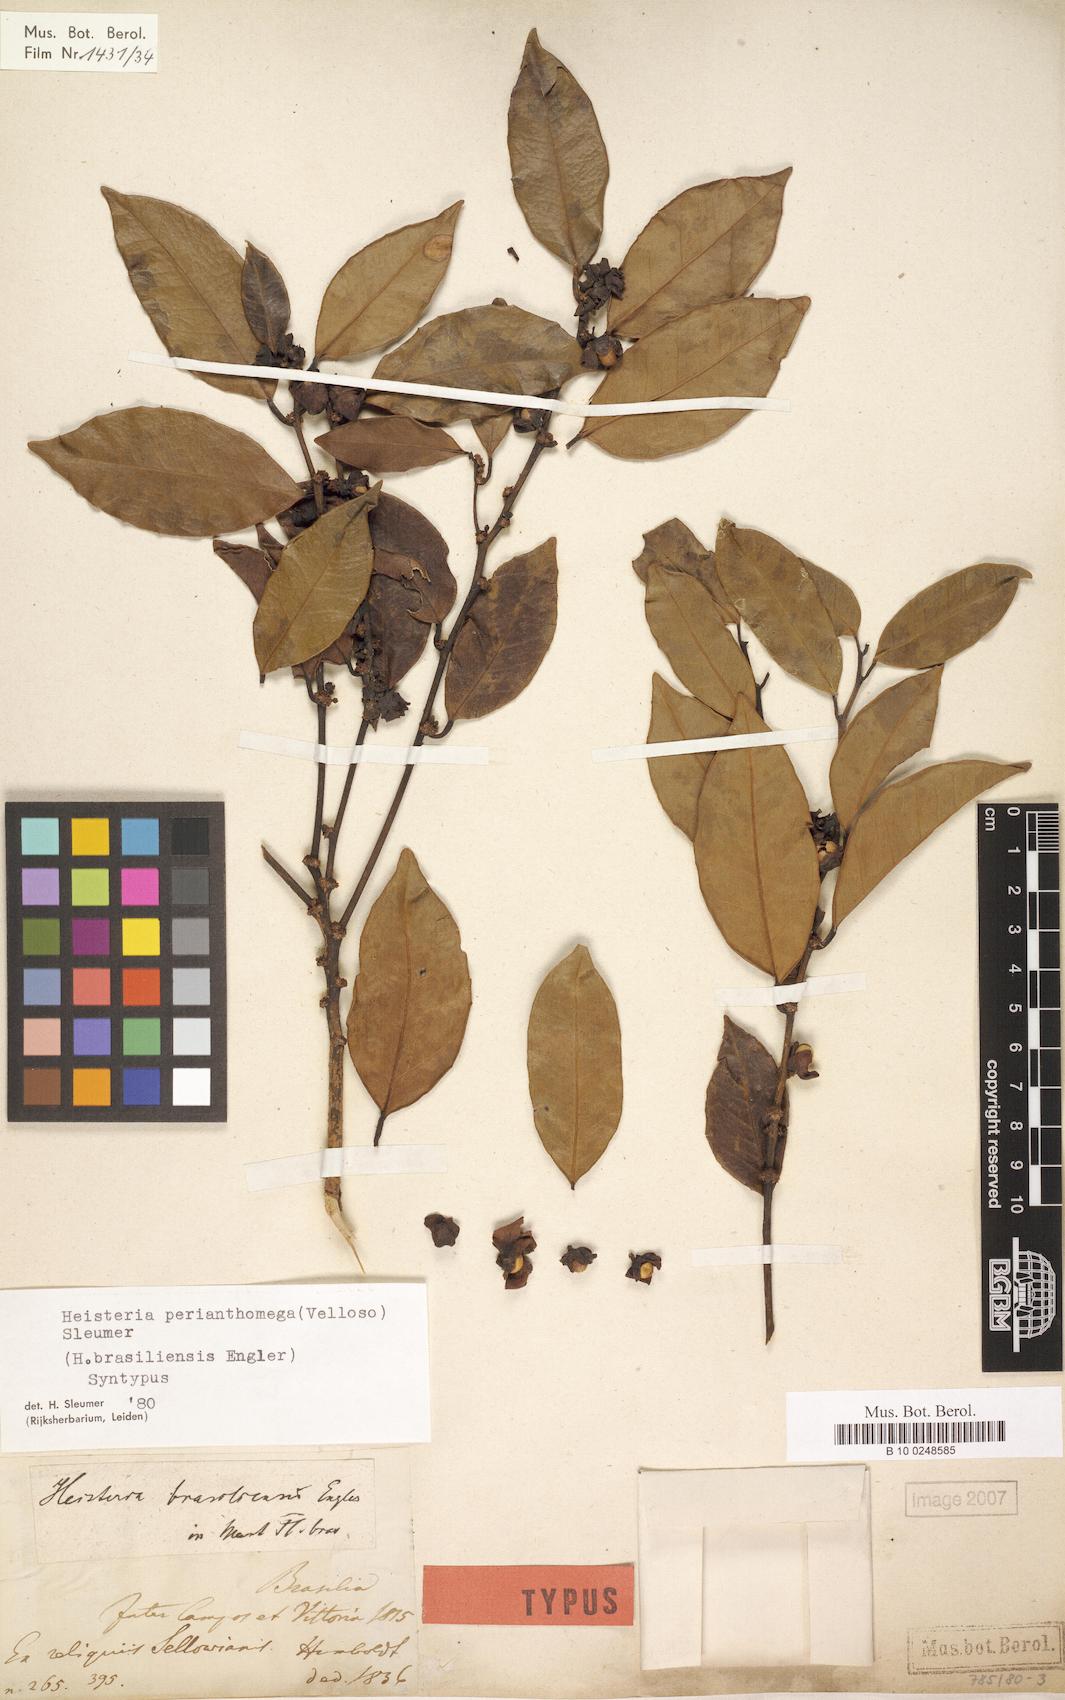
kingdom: Plantae
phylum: Tracheophyta
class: Magnoliopsida
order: Santalales
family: Erythropalaceae
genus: Heisteria
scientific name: Heisteria perianthomega
